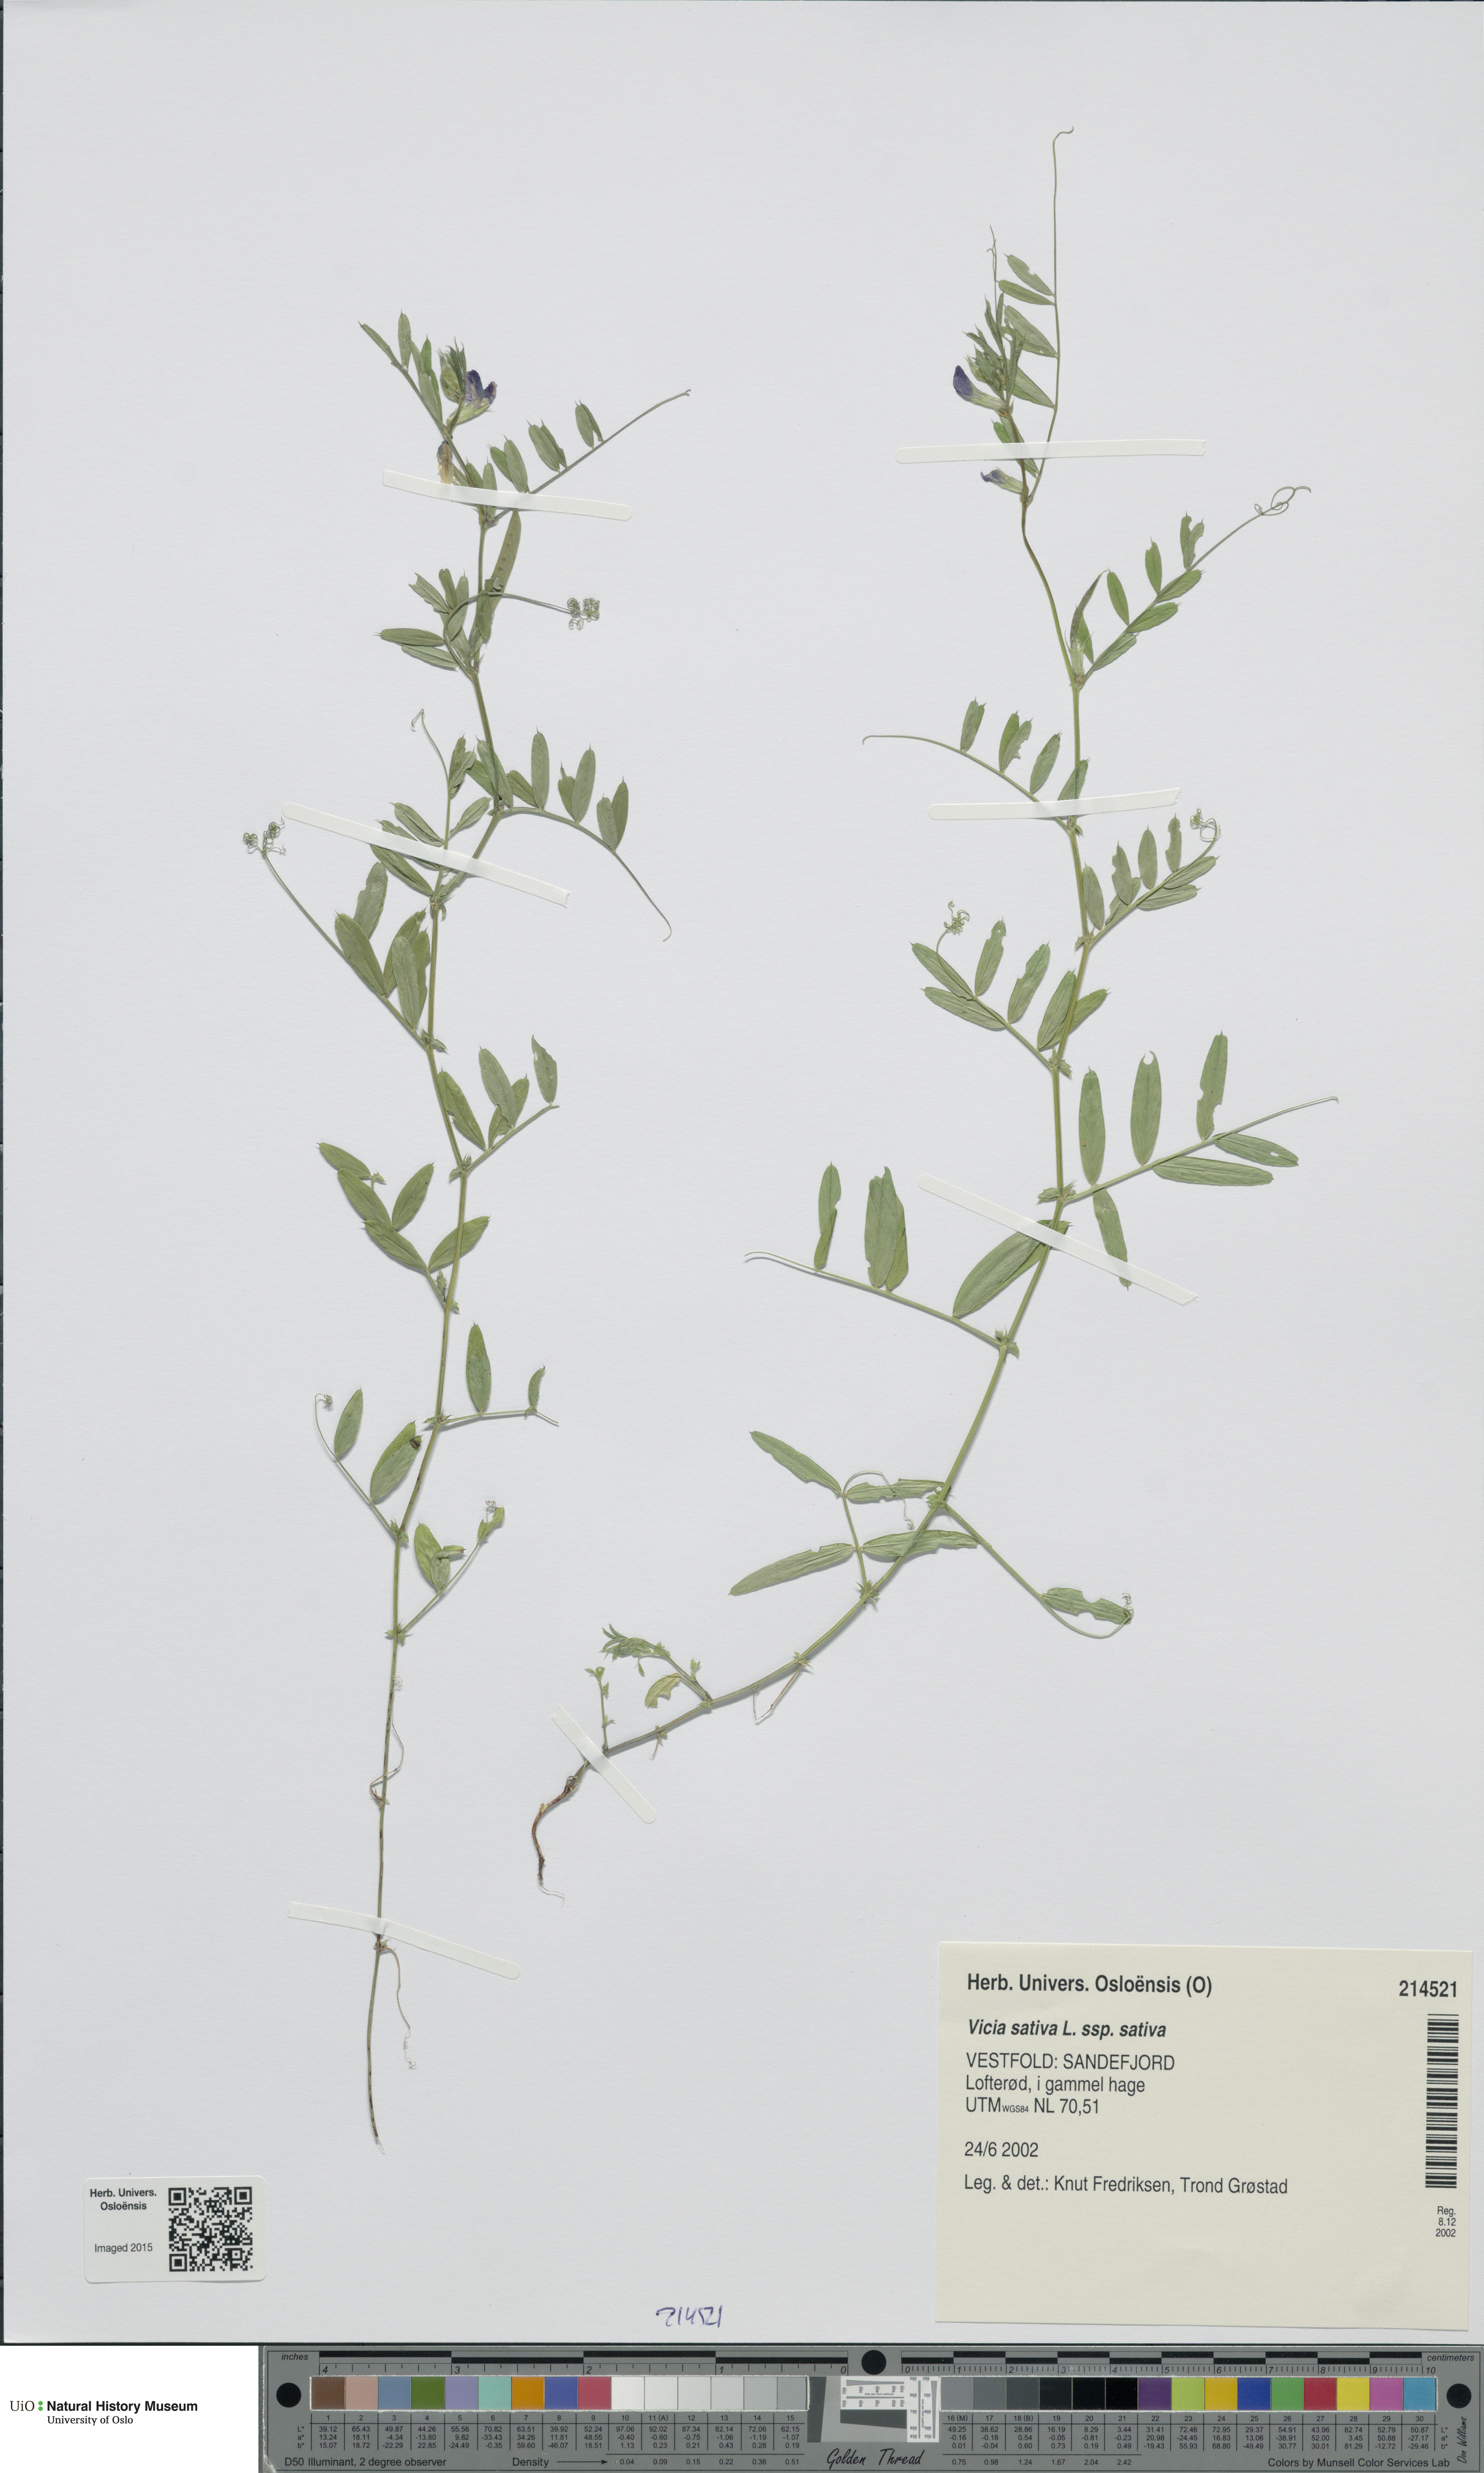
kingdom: Plantae
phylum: Tracheophyta
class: Magnoliopsida
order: Fabales
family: Fabaceae
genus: Vicia
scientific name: Vicia sativa
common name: Garden vetch
